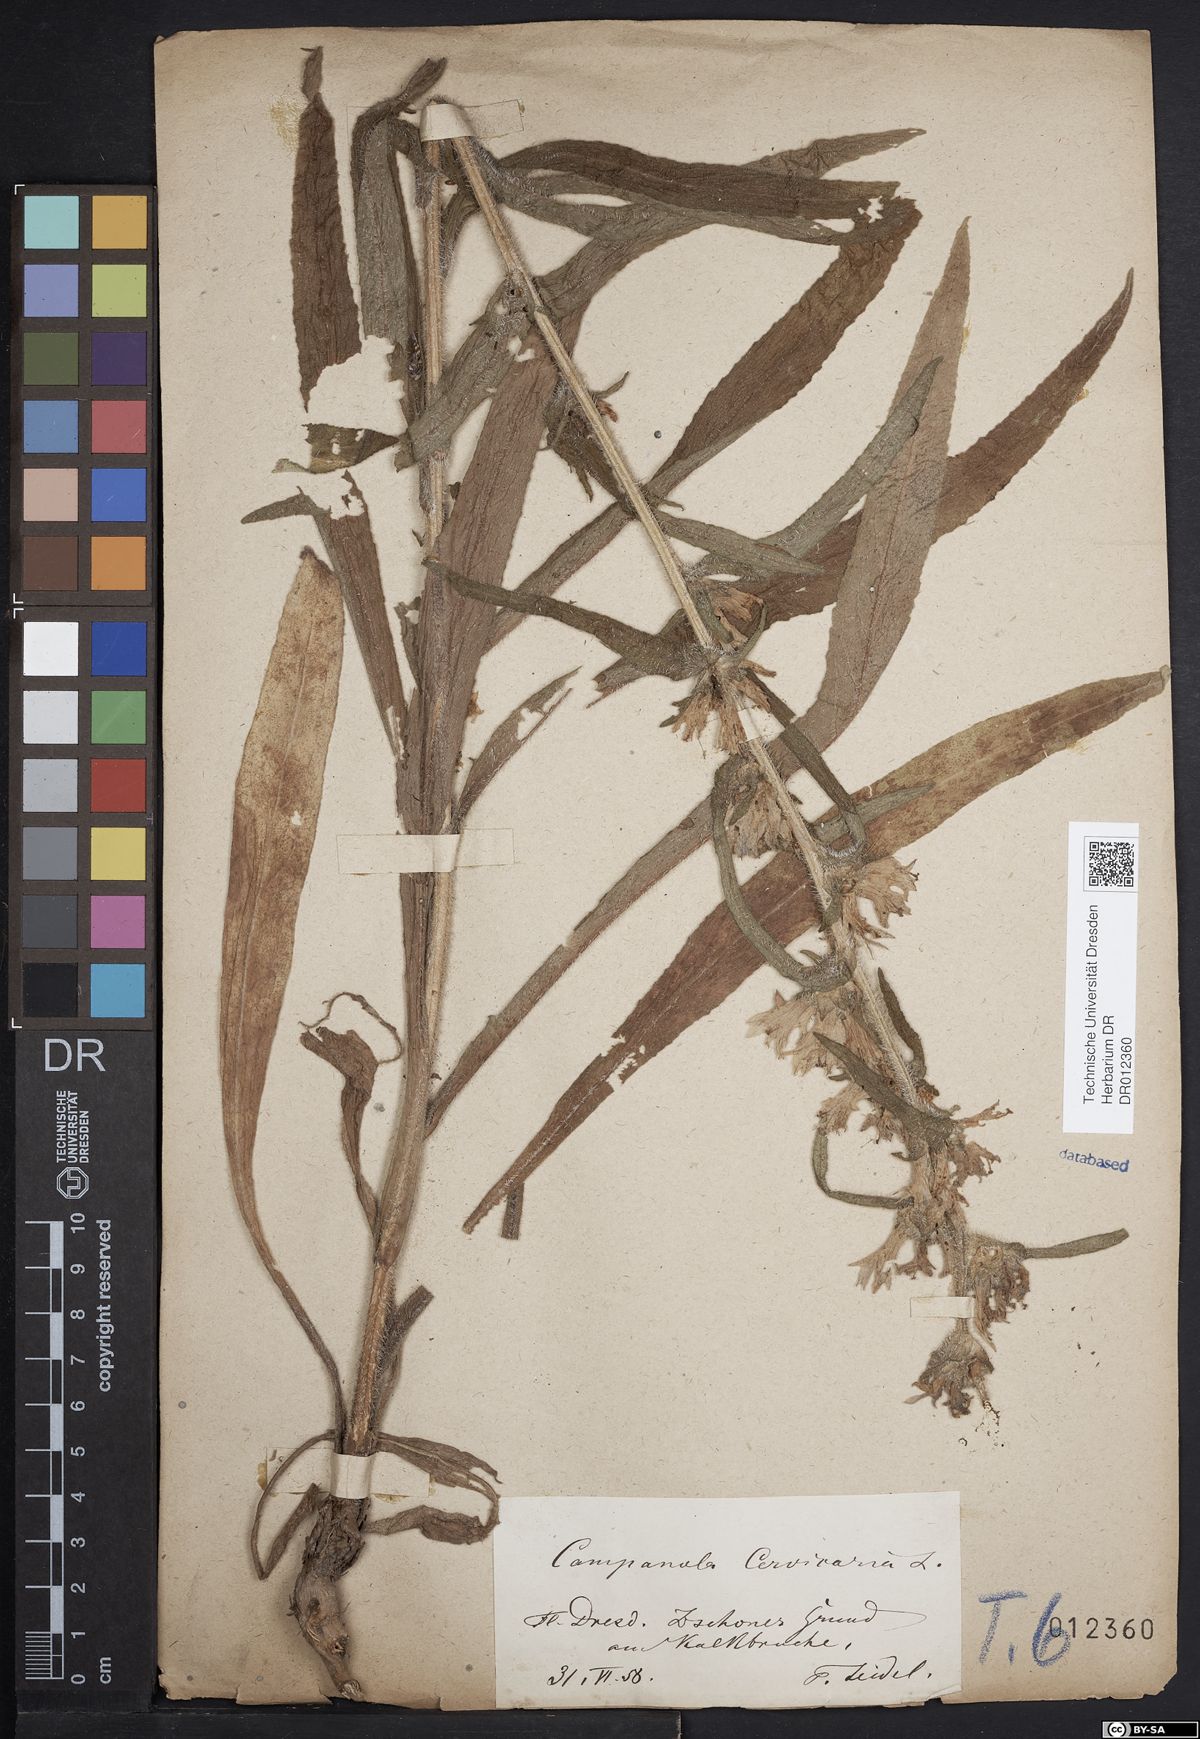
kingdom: Plantae
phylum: Tracheophyta
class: Magnoliopsida
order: Asterales
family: Campanulaceae
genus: Campanula
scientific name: Campanula cervicaria
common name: Bristly bellflower
